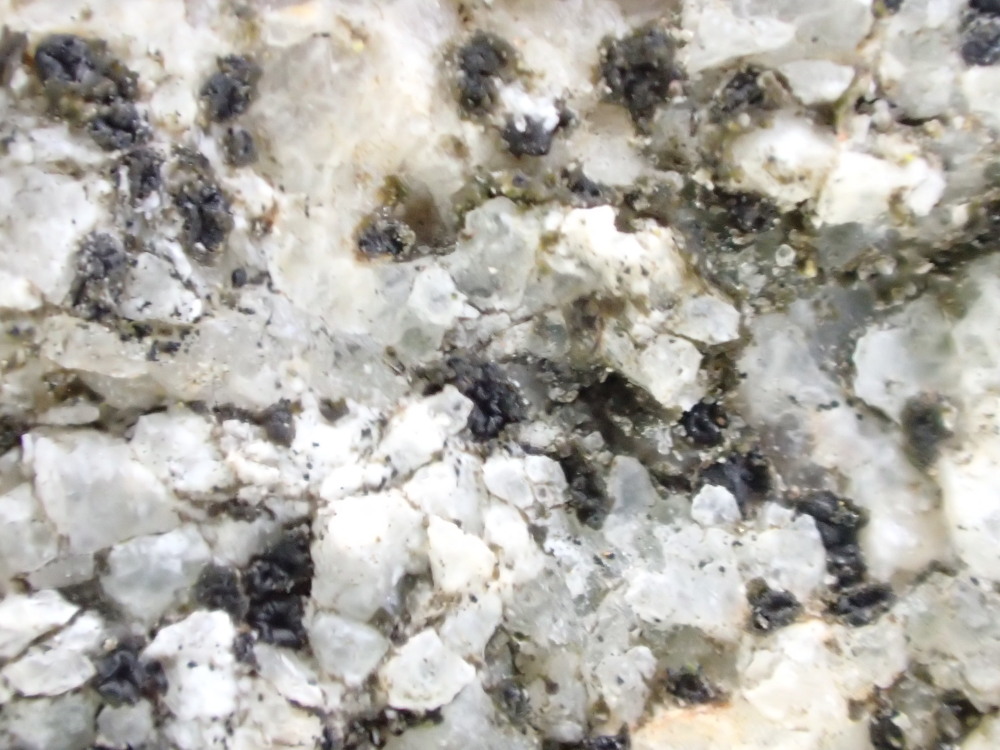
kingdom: Fungi
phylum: Ascomycota
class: Lecanoromycetes
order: Acarosporales
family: Acarosporaceae
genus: Acarospora
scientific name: Acarospora privigna
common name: sort foldekantlav
